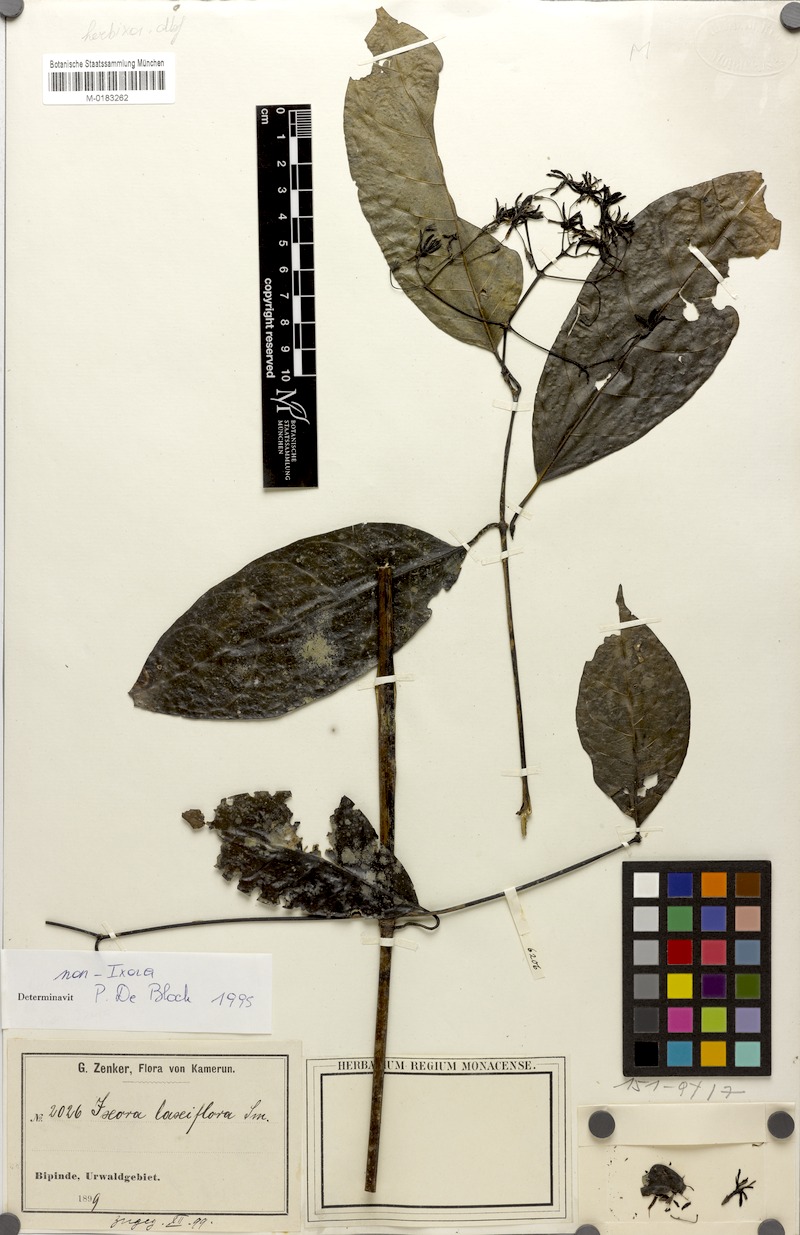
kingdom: Plantae
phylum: Tracheophyta
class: Magnoliopsida
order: Gentianales
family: Rubiaceae
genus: Tarenna
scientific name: Tarenna bipindensis
